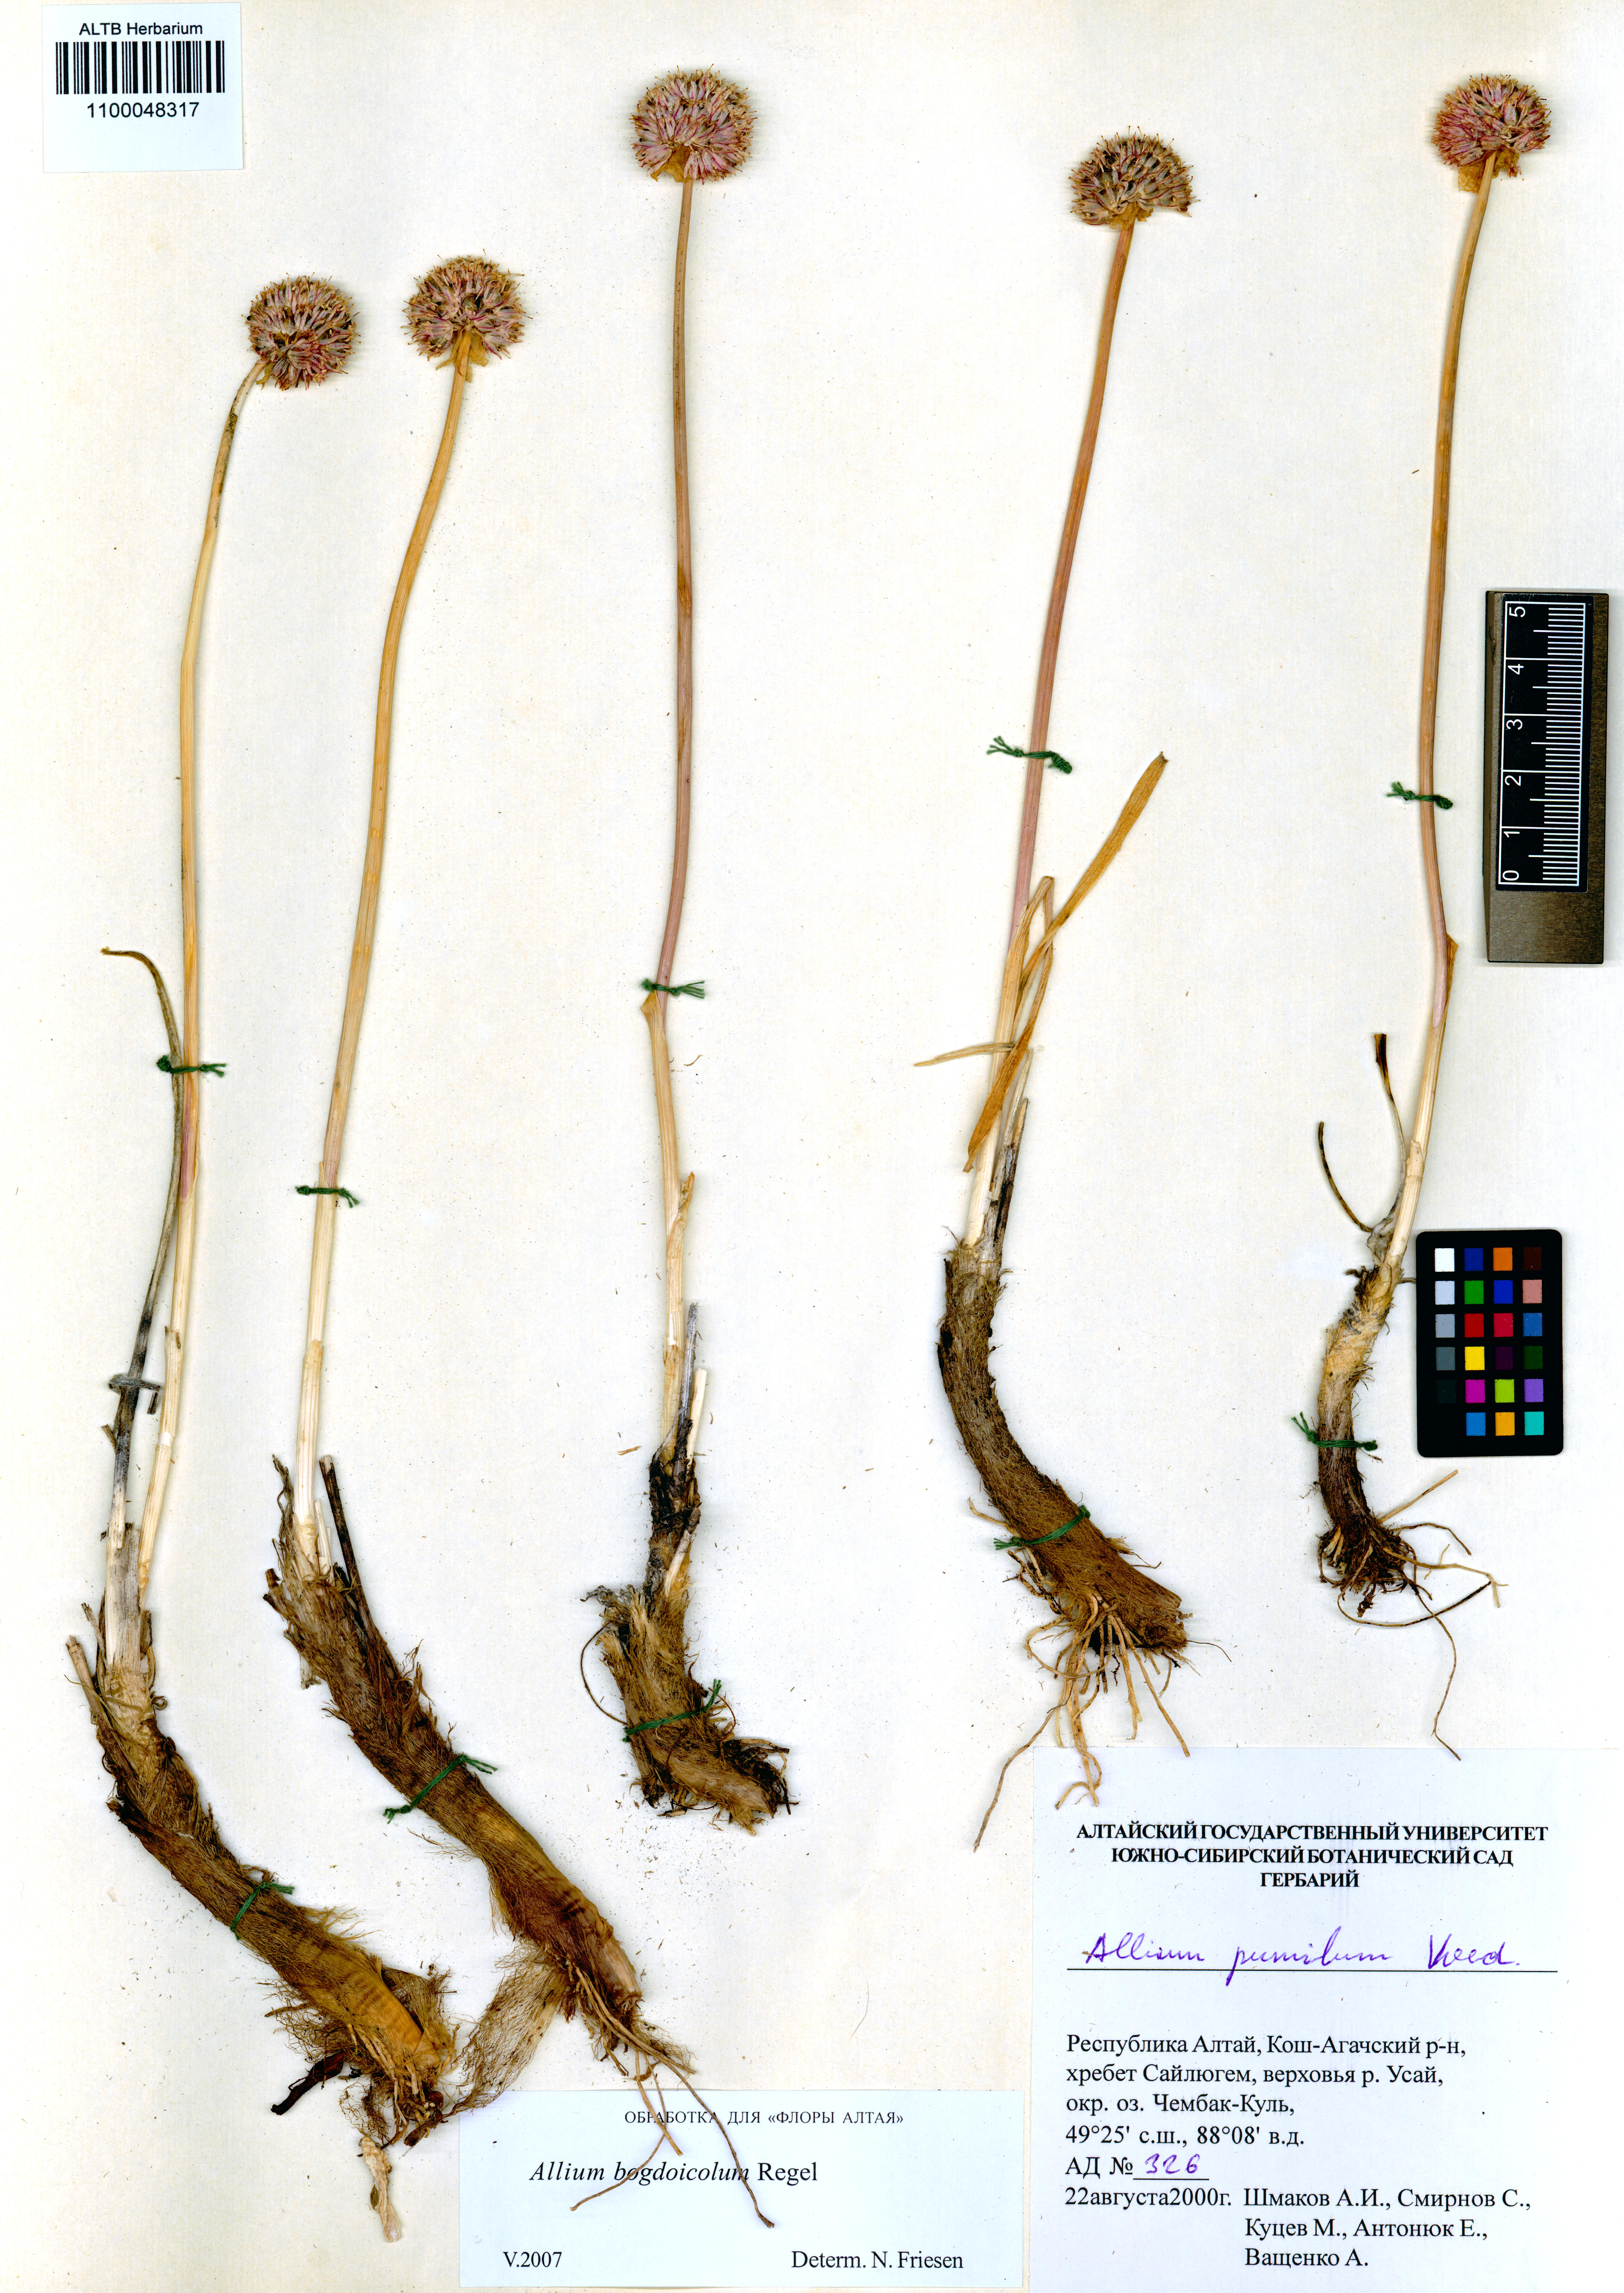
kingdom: Plantae
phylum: Tracheophyta
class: Liliopsida
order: Asparagales
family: Amaryllidaceae
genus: Allium
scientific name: Allium schrenkii
